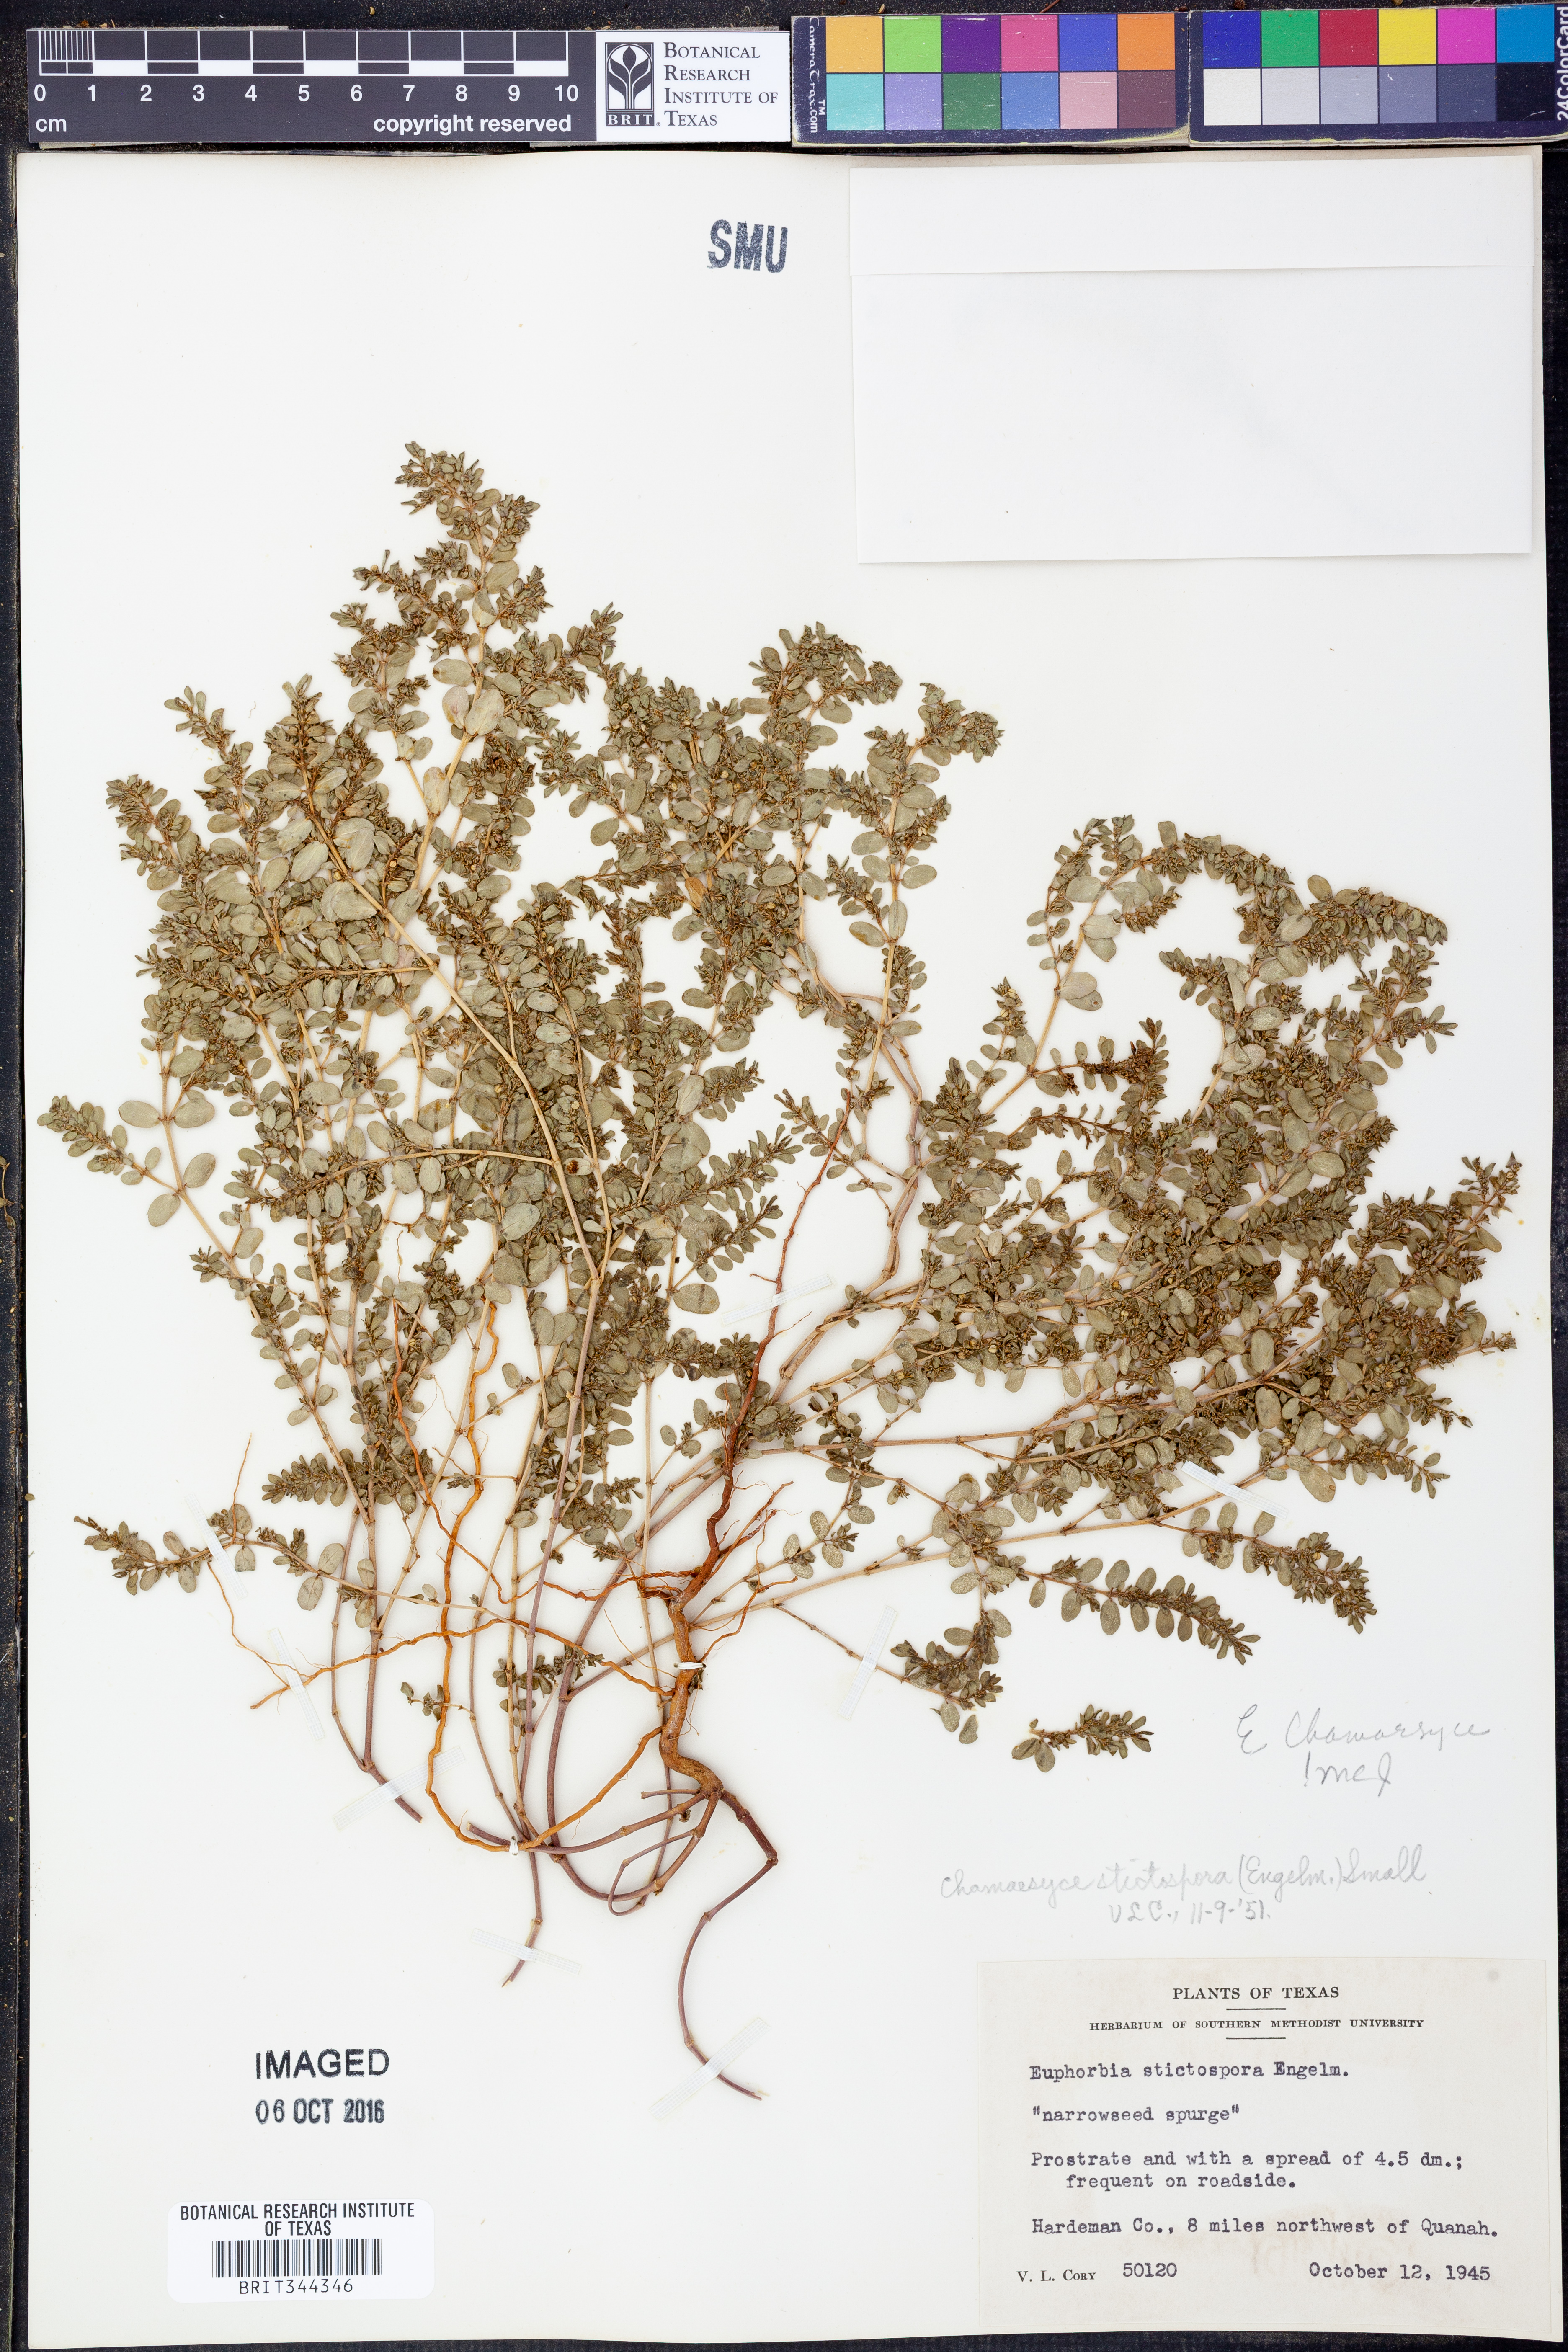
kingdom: Plantae
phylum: Tracheophyta
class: Magnoliopsida
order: Malpighiales
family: Euphorbiaceae
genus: Euphorbia
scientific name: Euphorbia chamaesyce
